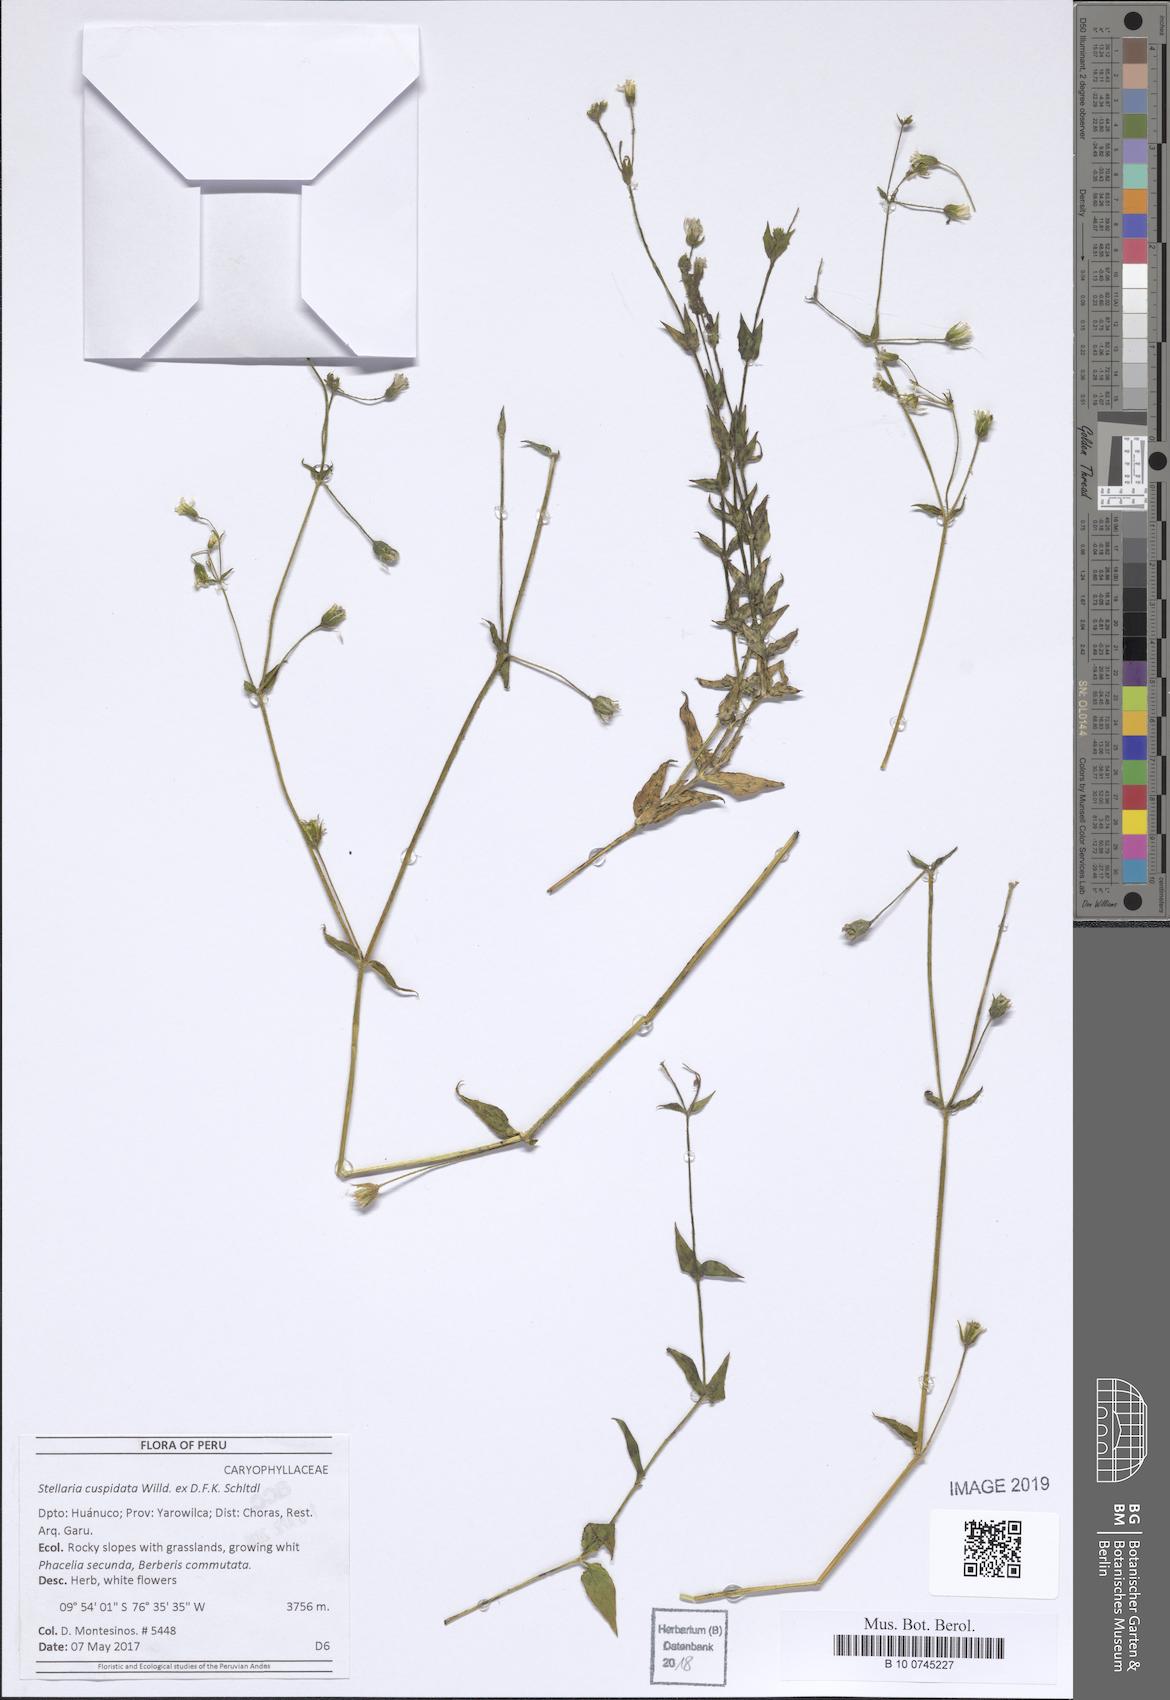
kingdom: Plantae
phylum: Tracheophyta
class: Magnoliopsida
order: Caryophyllales
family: Caryophyllaceae
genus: Stellaria
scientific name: Stellaria cuspidata
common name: Mexican chickweed
